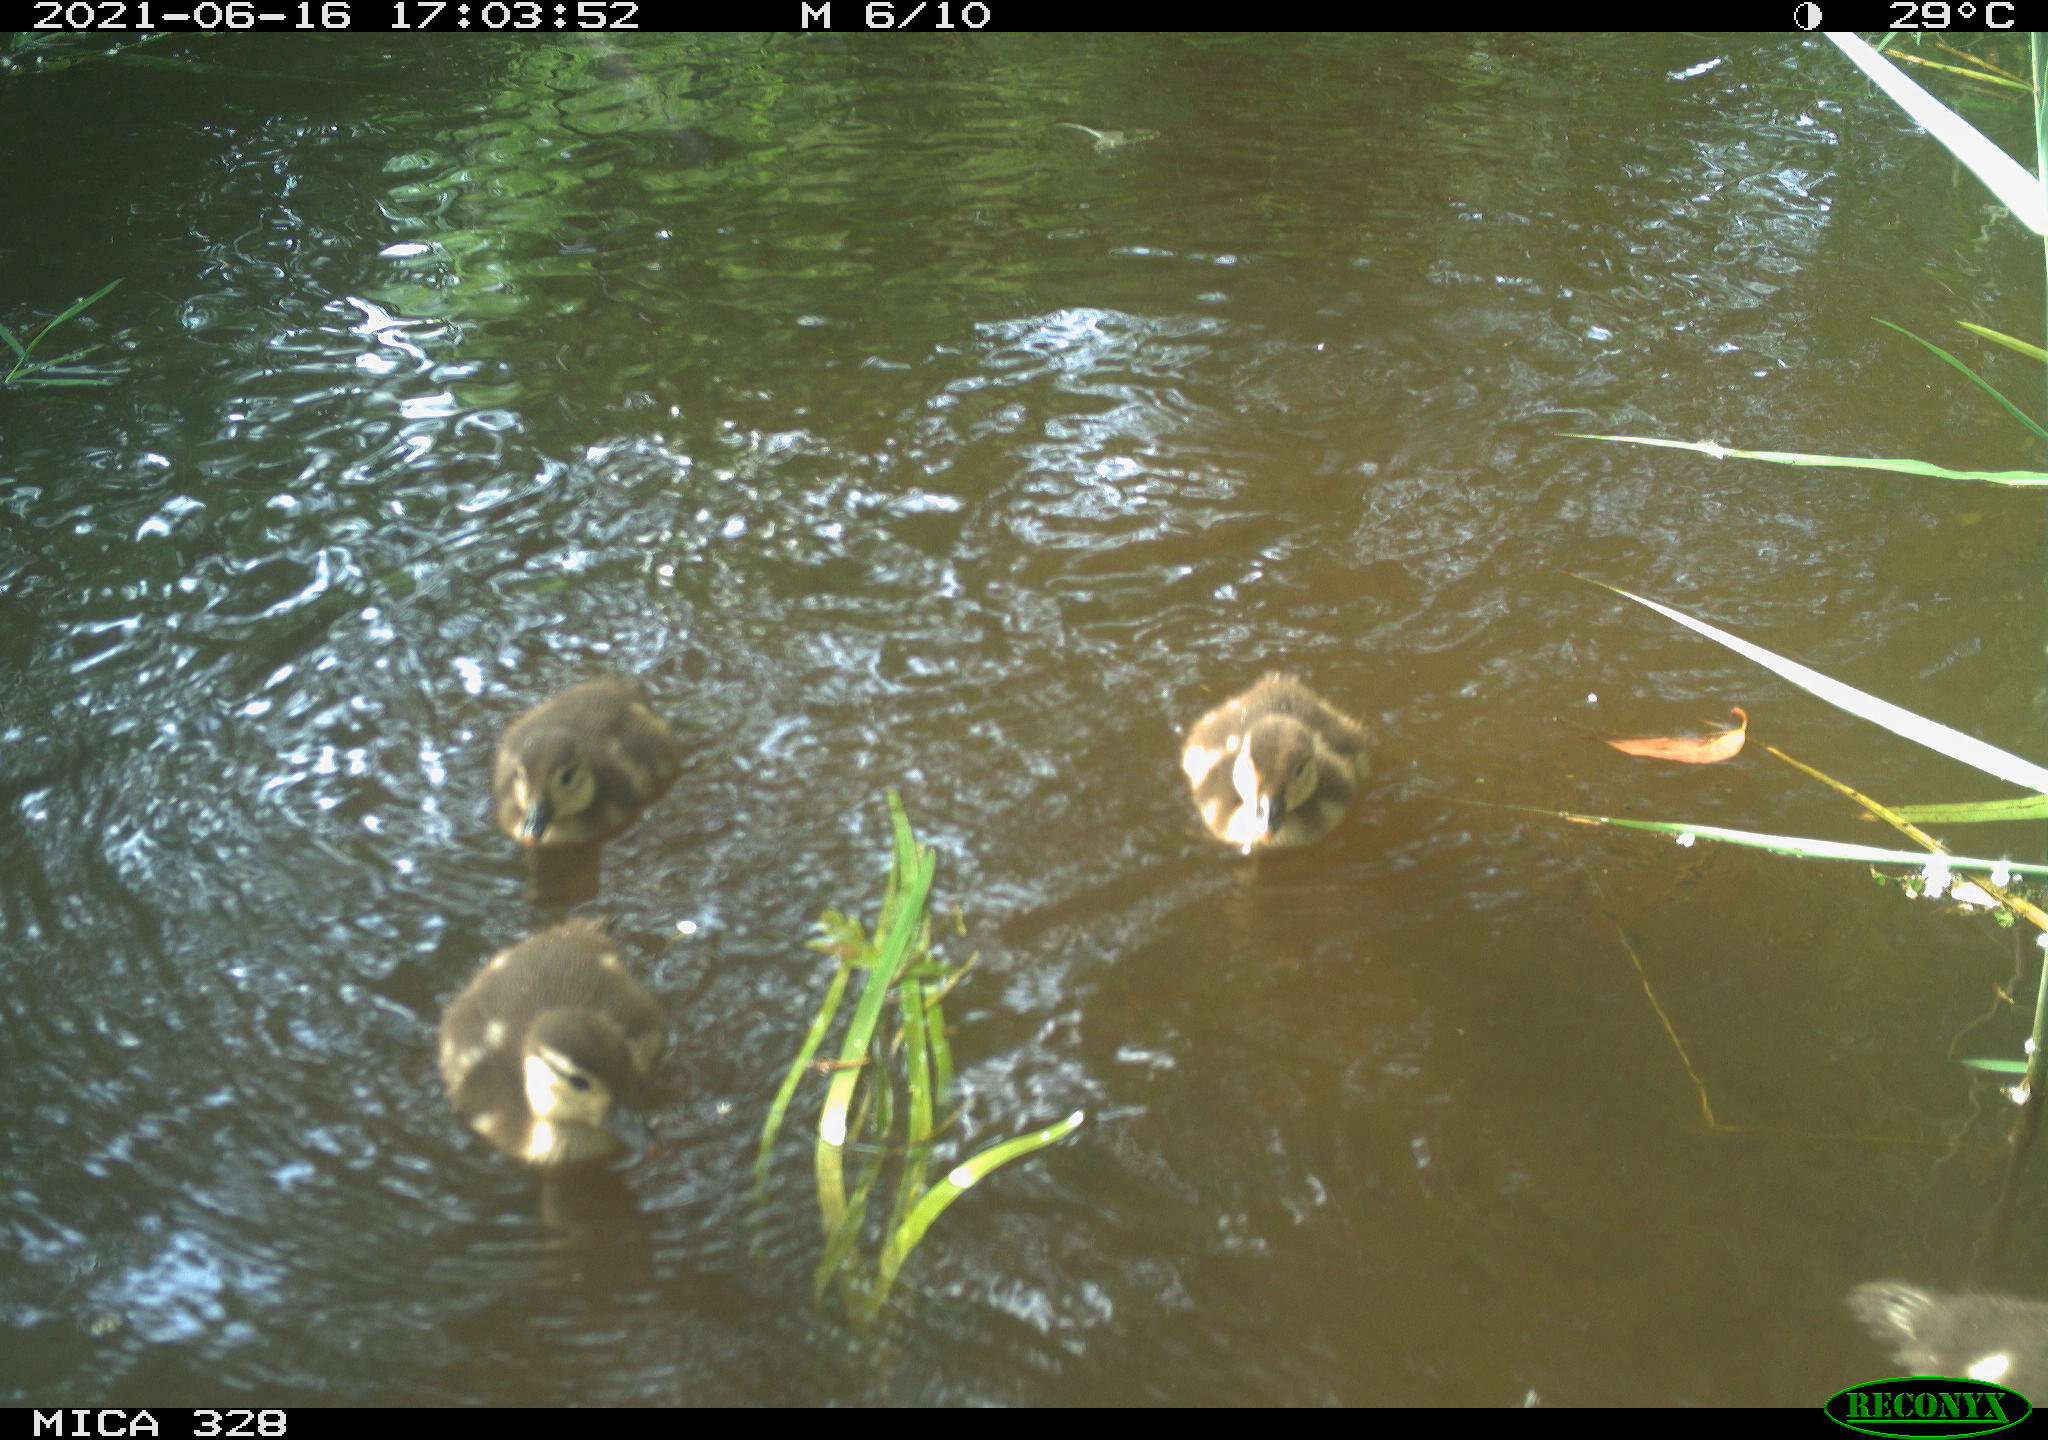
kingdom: Animalia
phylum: Chordata
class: Aves
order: Anseriformes
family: Anatidae
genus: Aix
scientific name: Aix galericulata
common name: Mandarin duck
